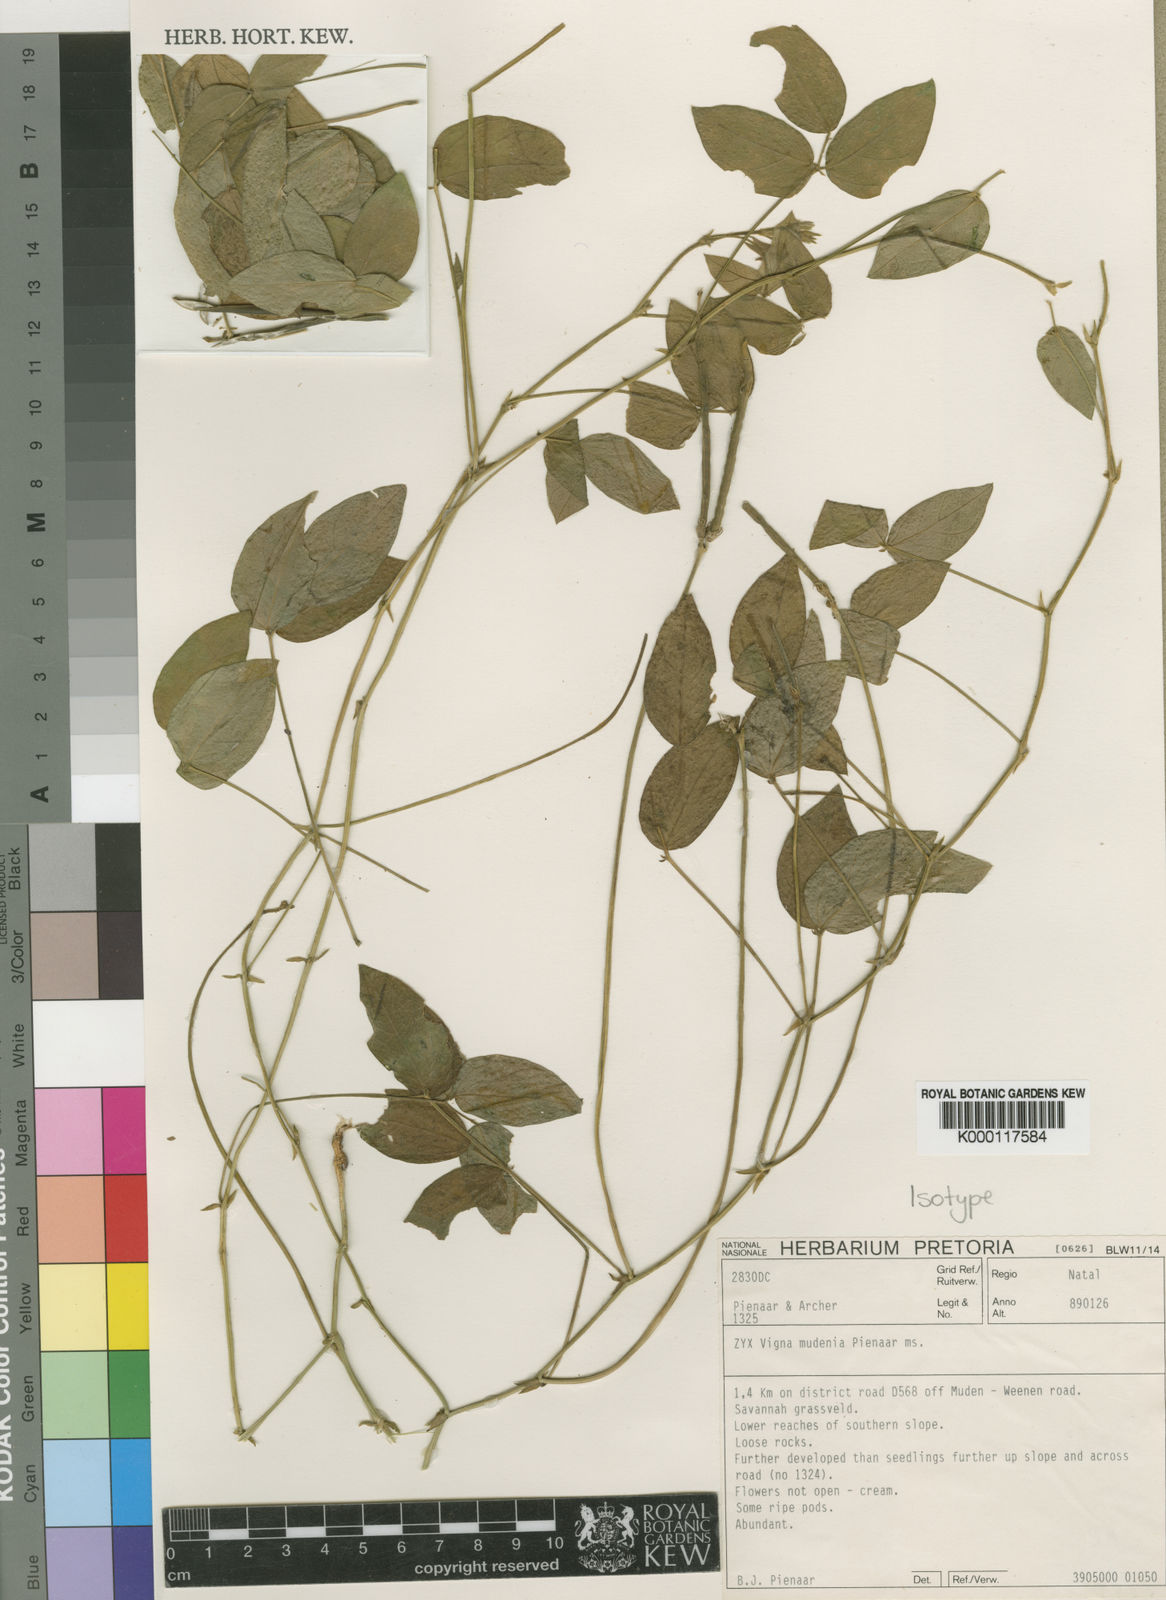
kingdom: Plantae
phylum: Tracheophyta
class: Magnoliopsida
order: Fabales
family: Fabaceae
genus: Vigna
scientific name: Vigna mudenia
